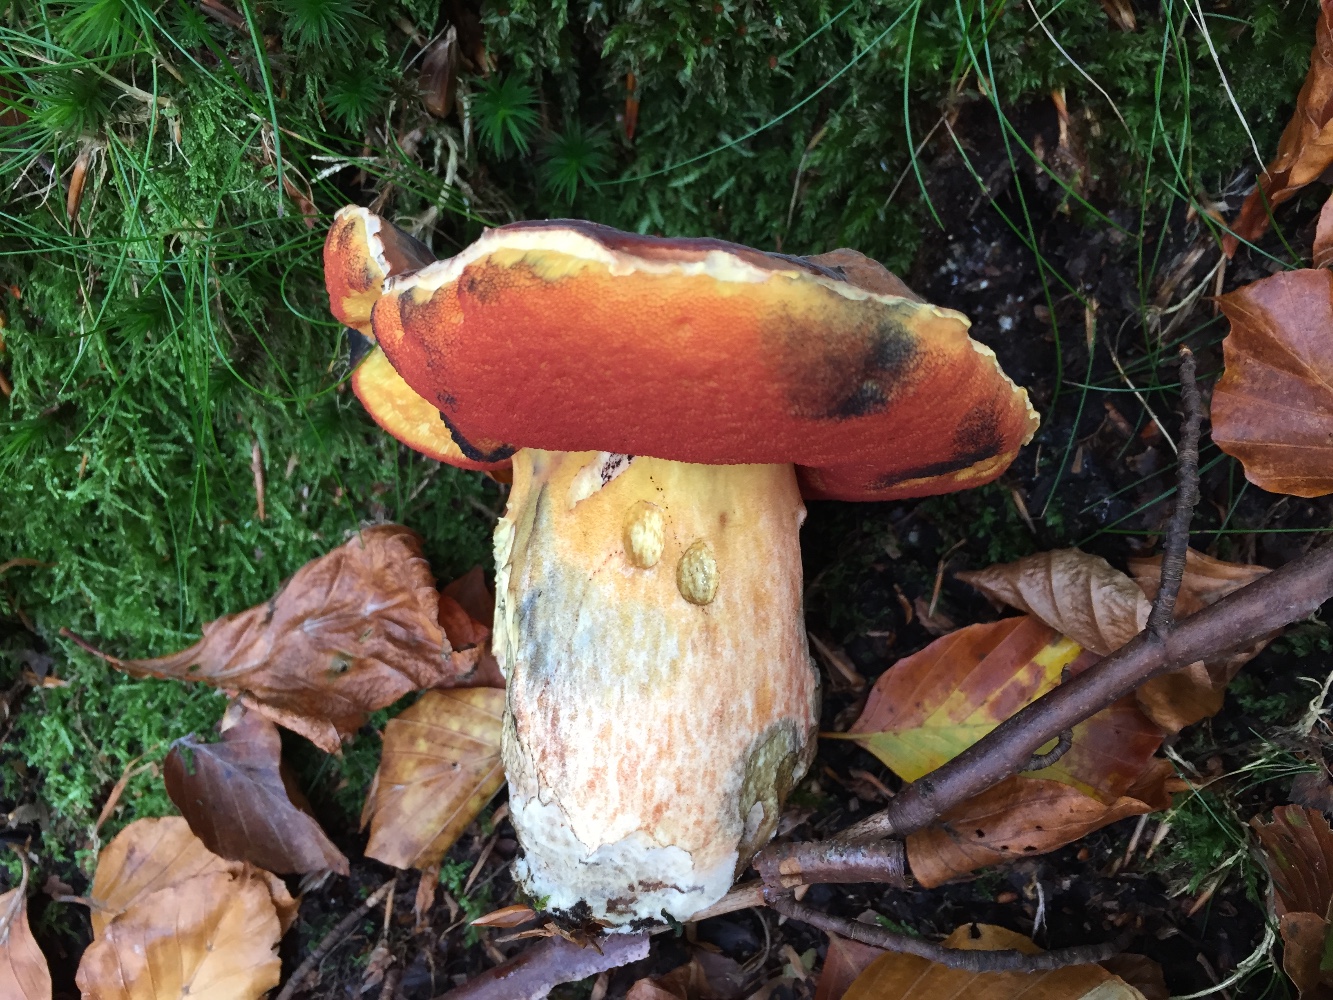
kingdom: Fungi
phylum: Basidiomycota
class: Agaricomycetes
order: Boletales
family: Boletaceae
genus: Neoboletus
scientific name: Neoboletus erythropus
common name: punktstokket indigorørhat
